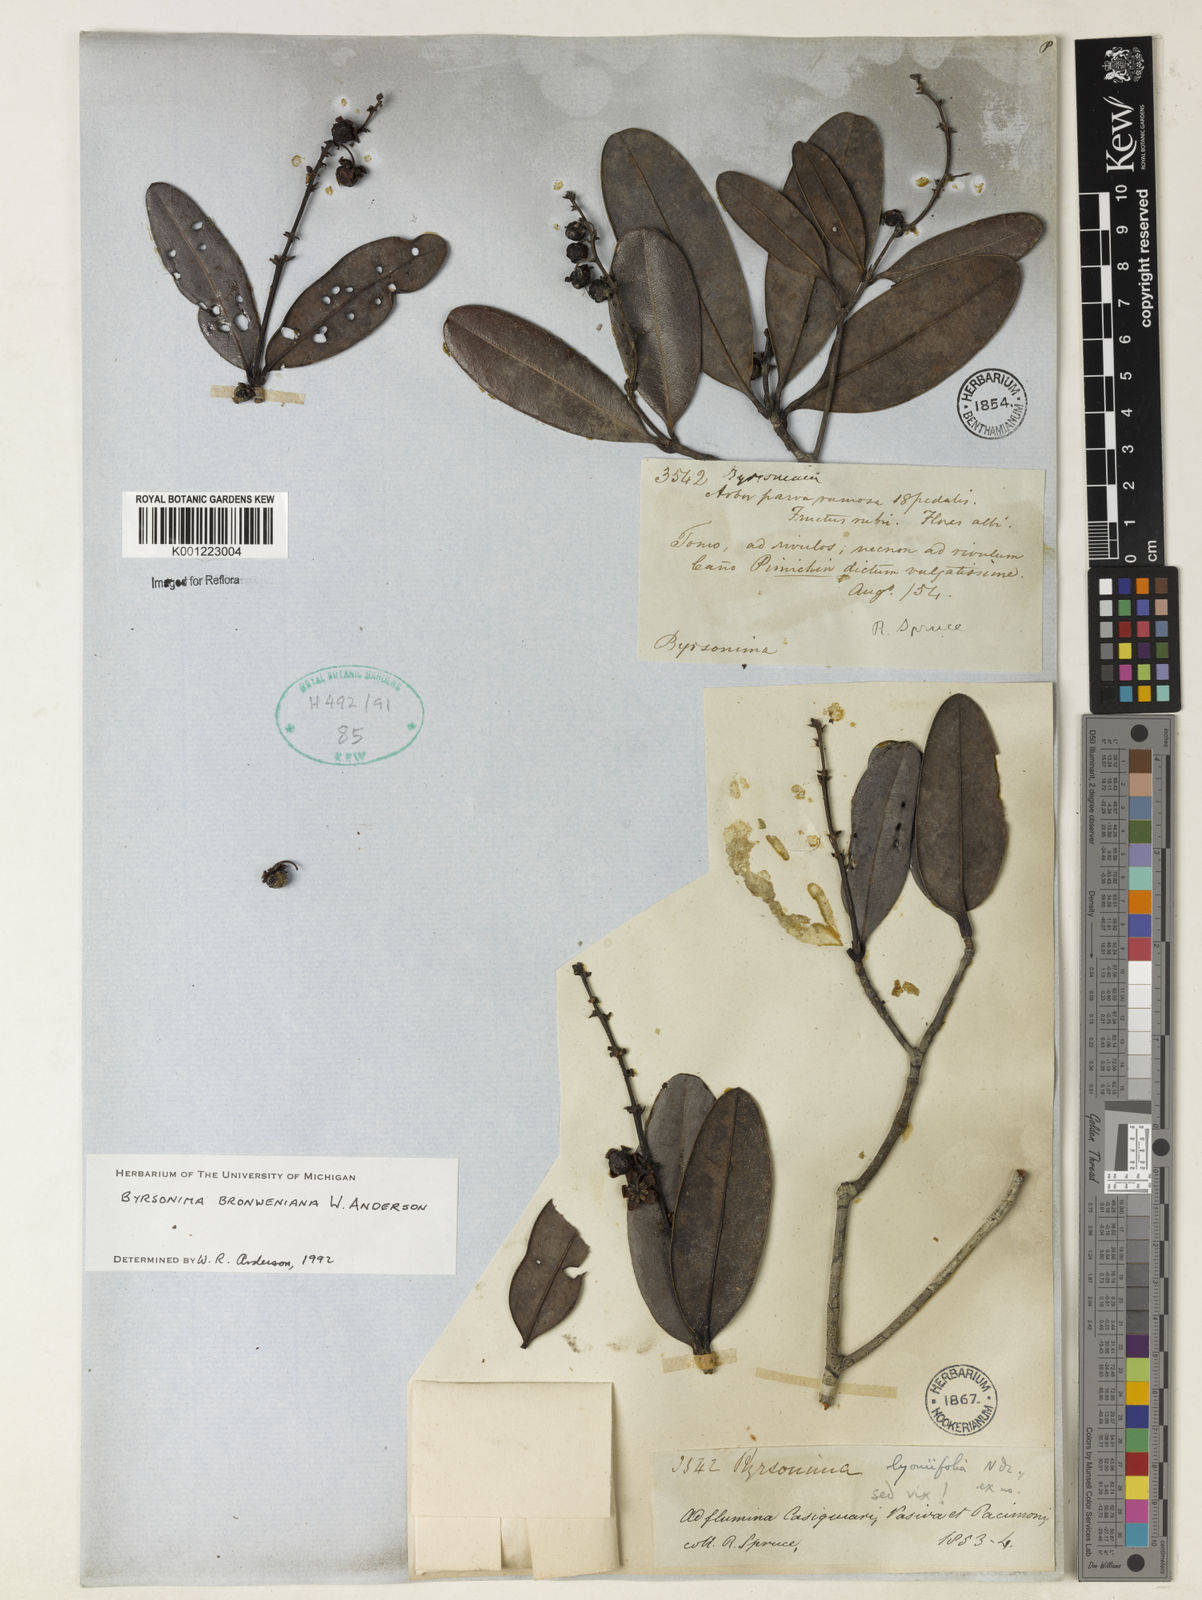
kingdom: Plantae
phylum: Tracheophyta
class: Magnoliopsida
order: Malpighiales
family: Malpighiaceae
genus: Byrsonima
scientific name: Byrsonima bronweniana
